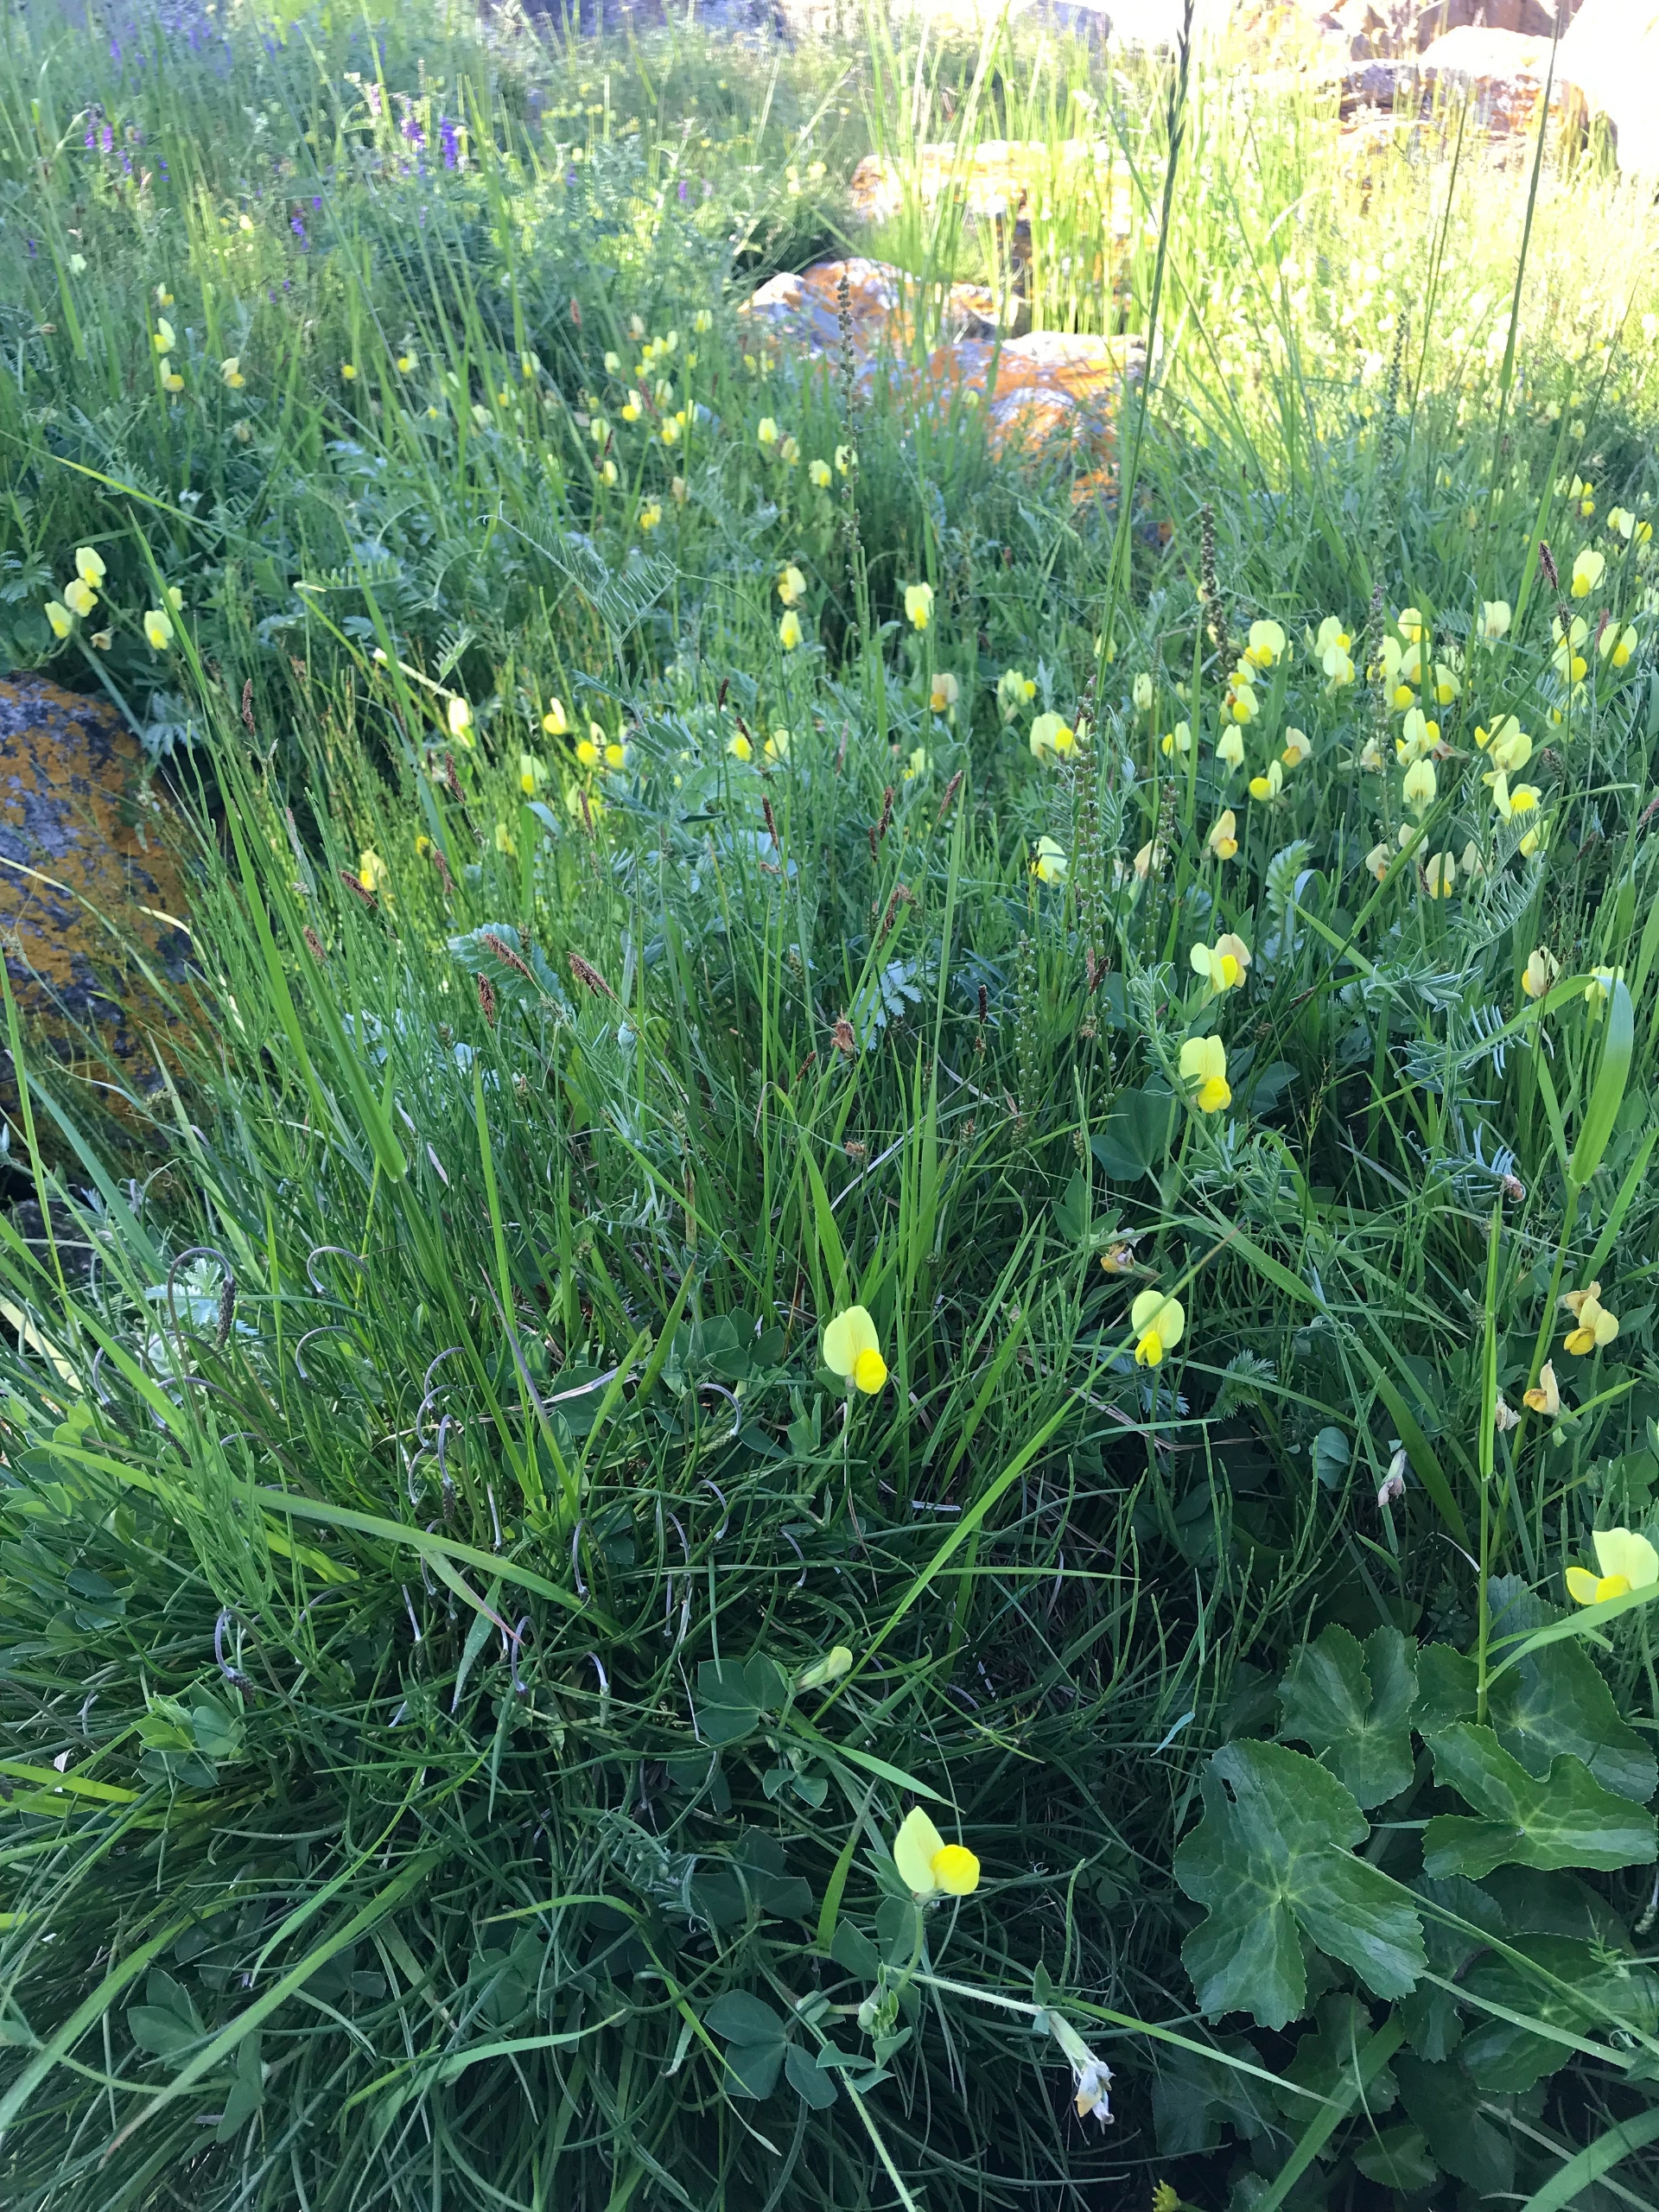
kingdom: Plantae
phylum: Tracheophyta
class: Magnoliopsida
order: Fabales
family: Fabaceae
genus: Lotus
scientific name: Lotus maritimus
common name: Kantbælg
